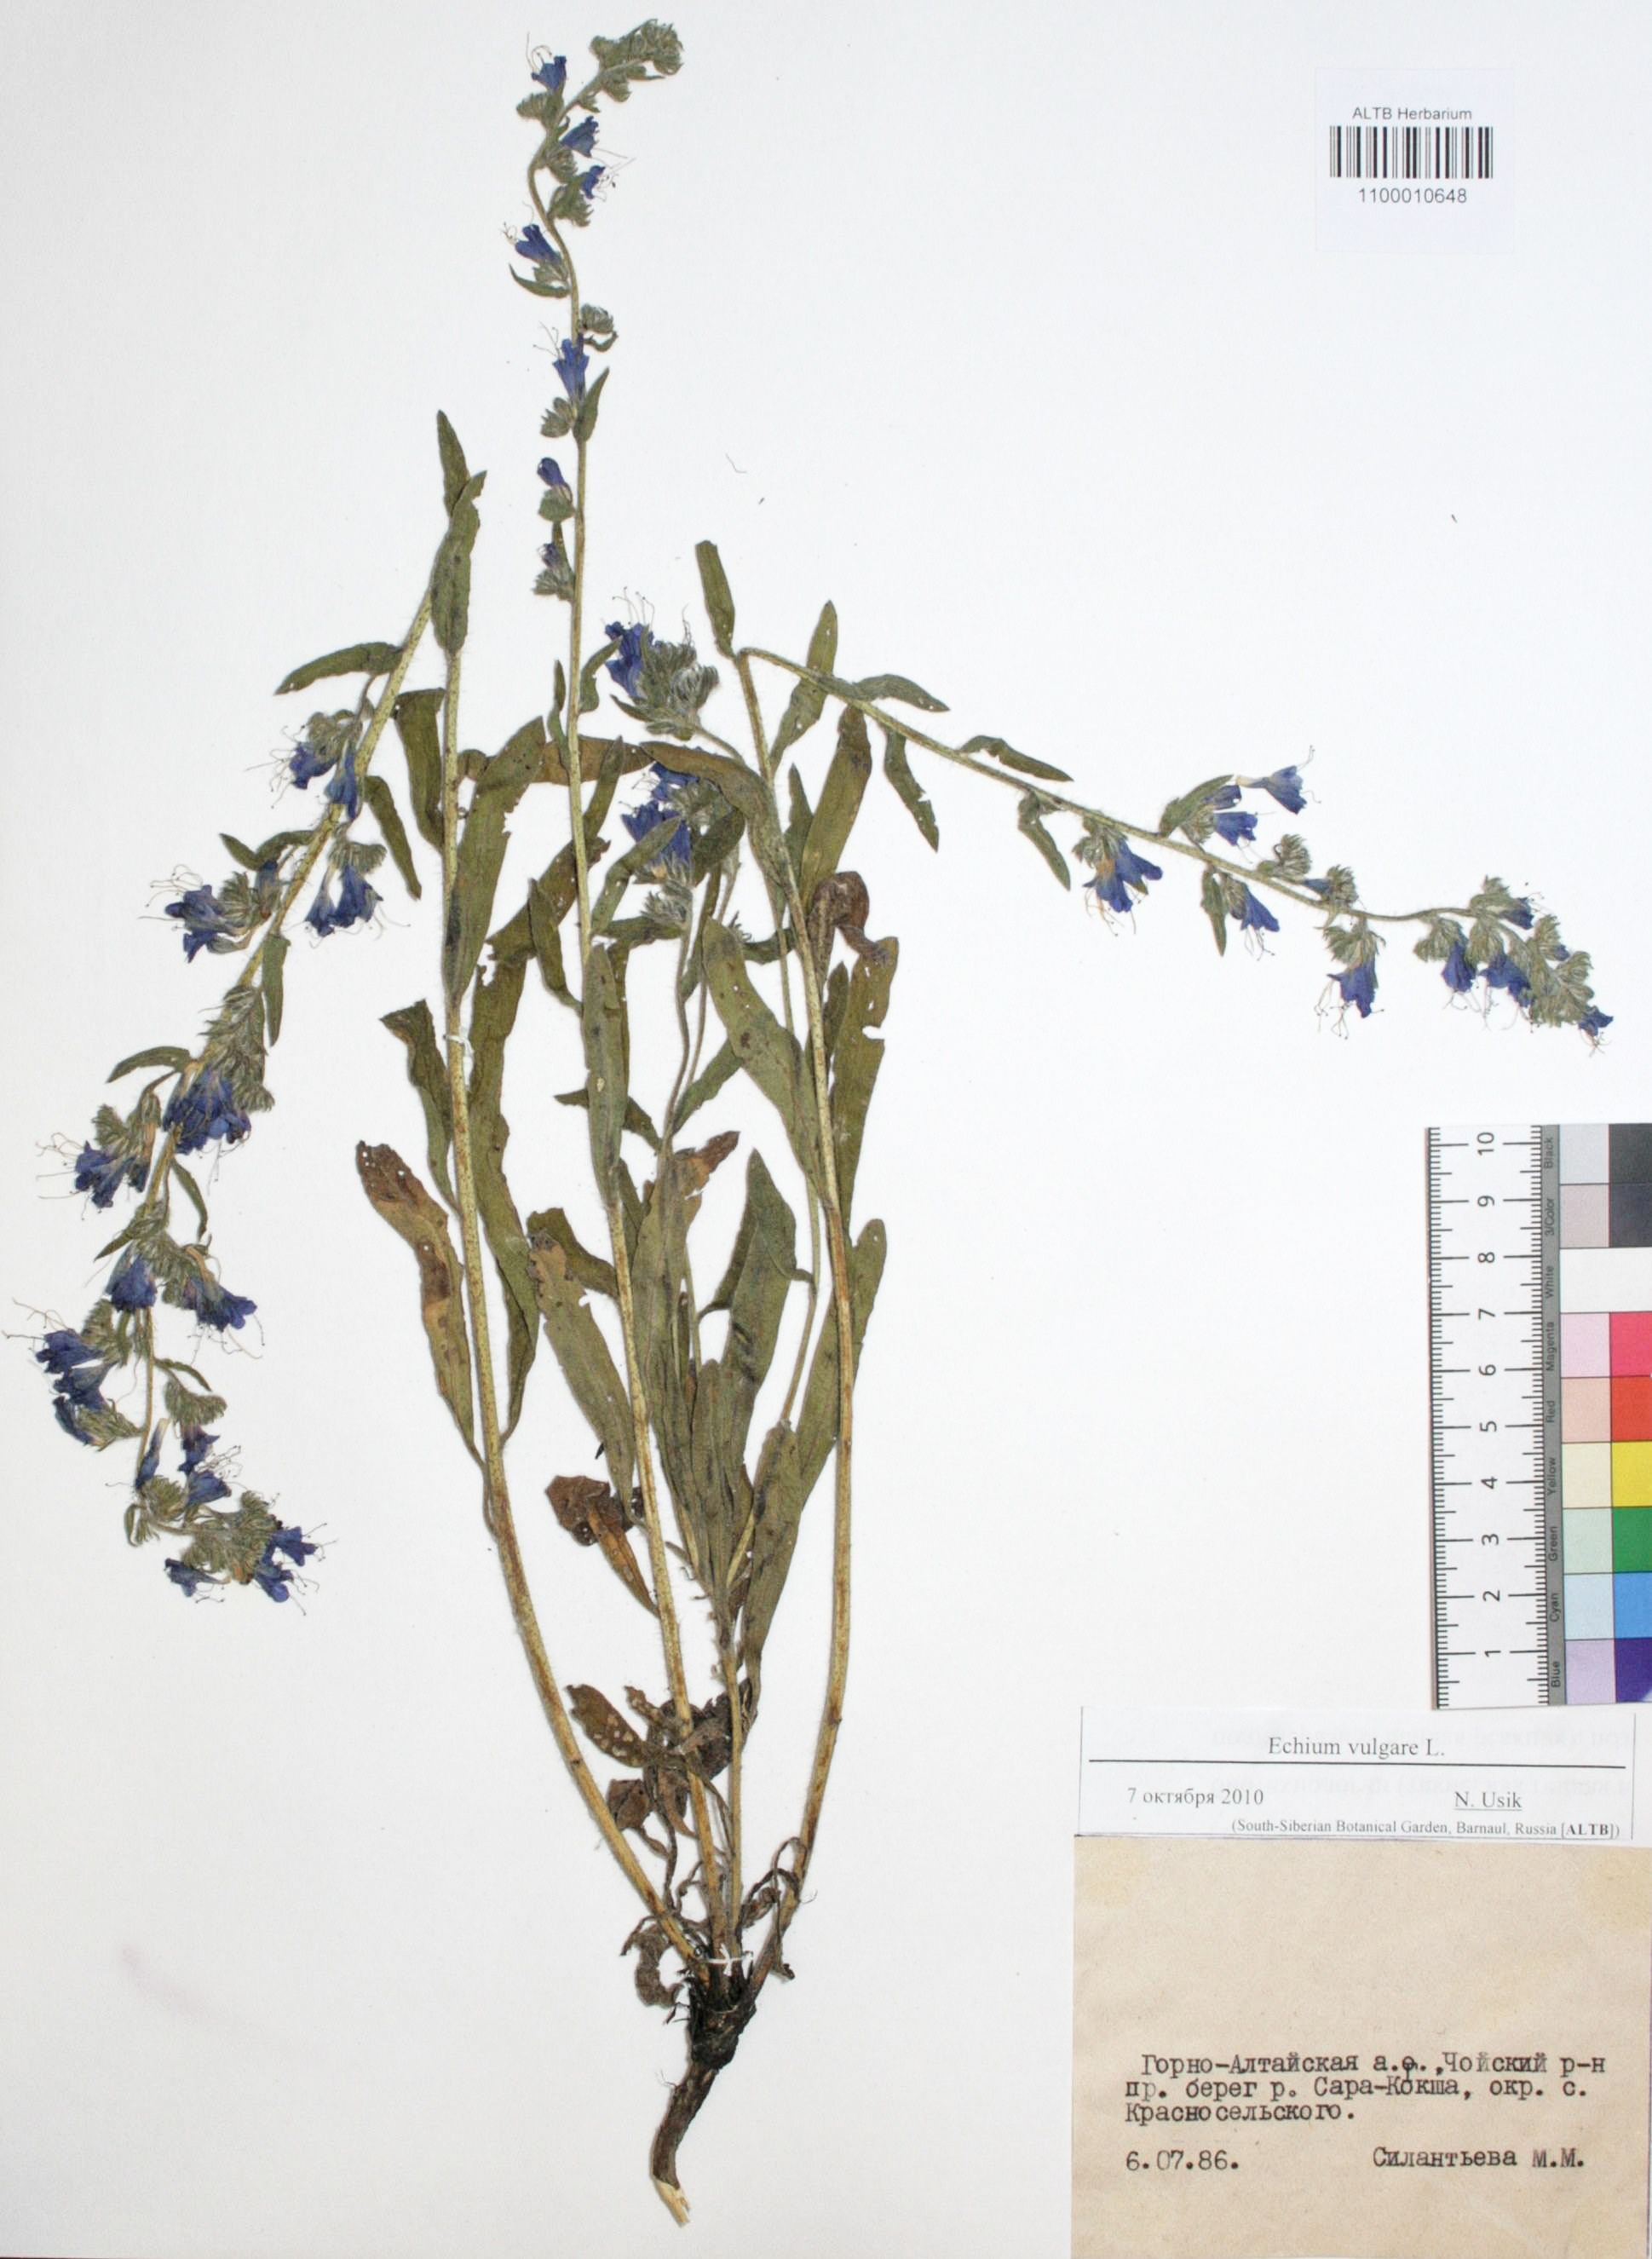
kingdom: Plantae
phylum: Tracheophyta
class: Magnoliopsida
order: Boraginales
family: Boraginaceae
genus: Echium
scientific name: Echium vulgare
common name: Common viper's bugloss
